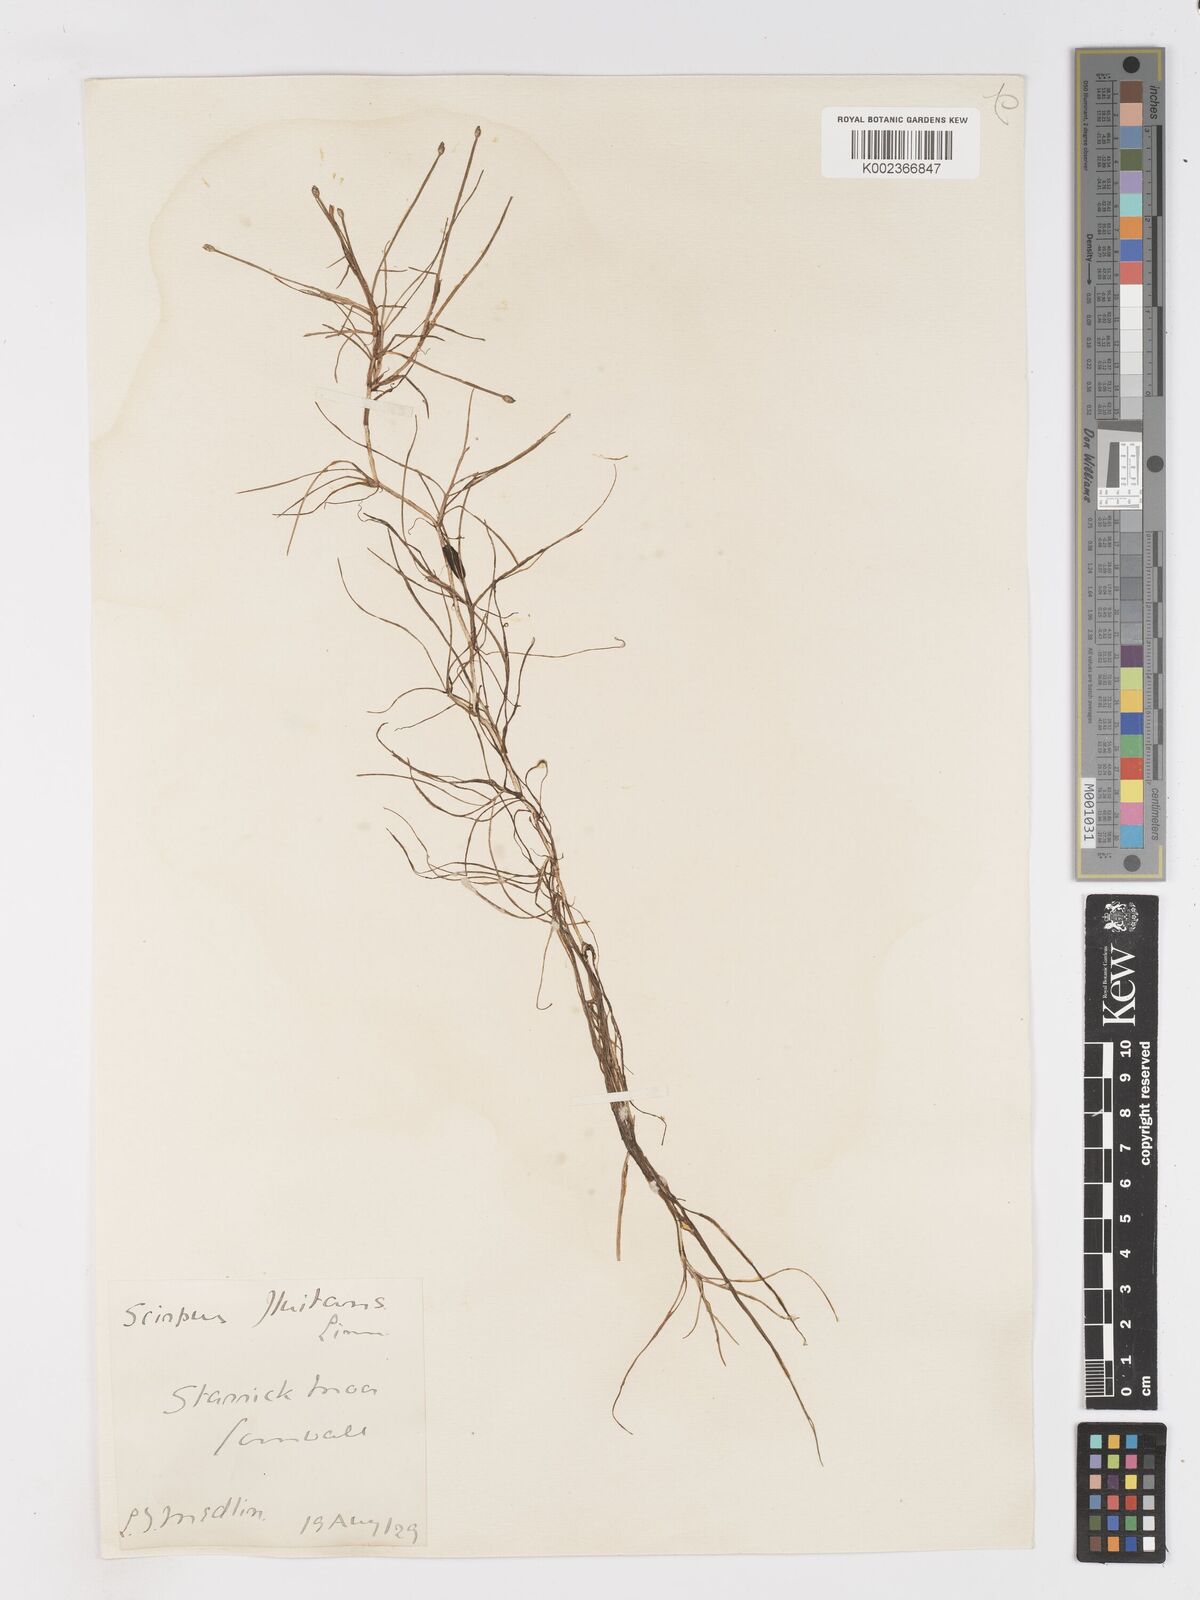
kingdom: Plantae
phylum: Tracheophyta
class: Liliopsida
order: Poales
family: Cyperaceae
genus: Isolepis
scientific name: Isolepis fluitans
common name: Floating club-rush
